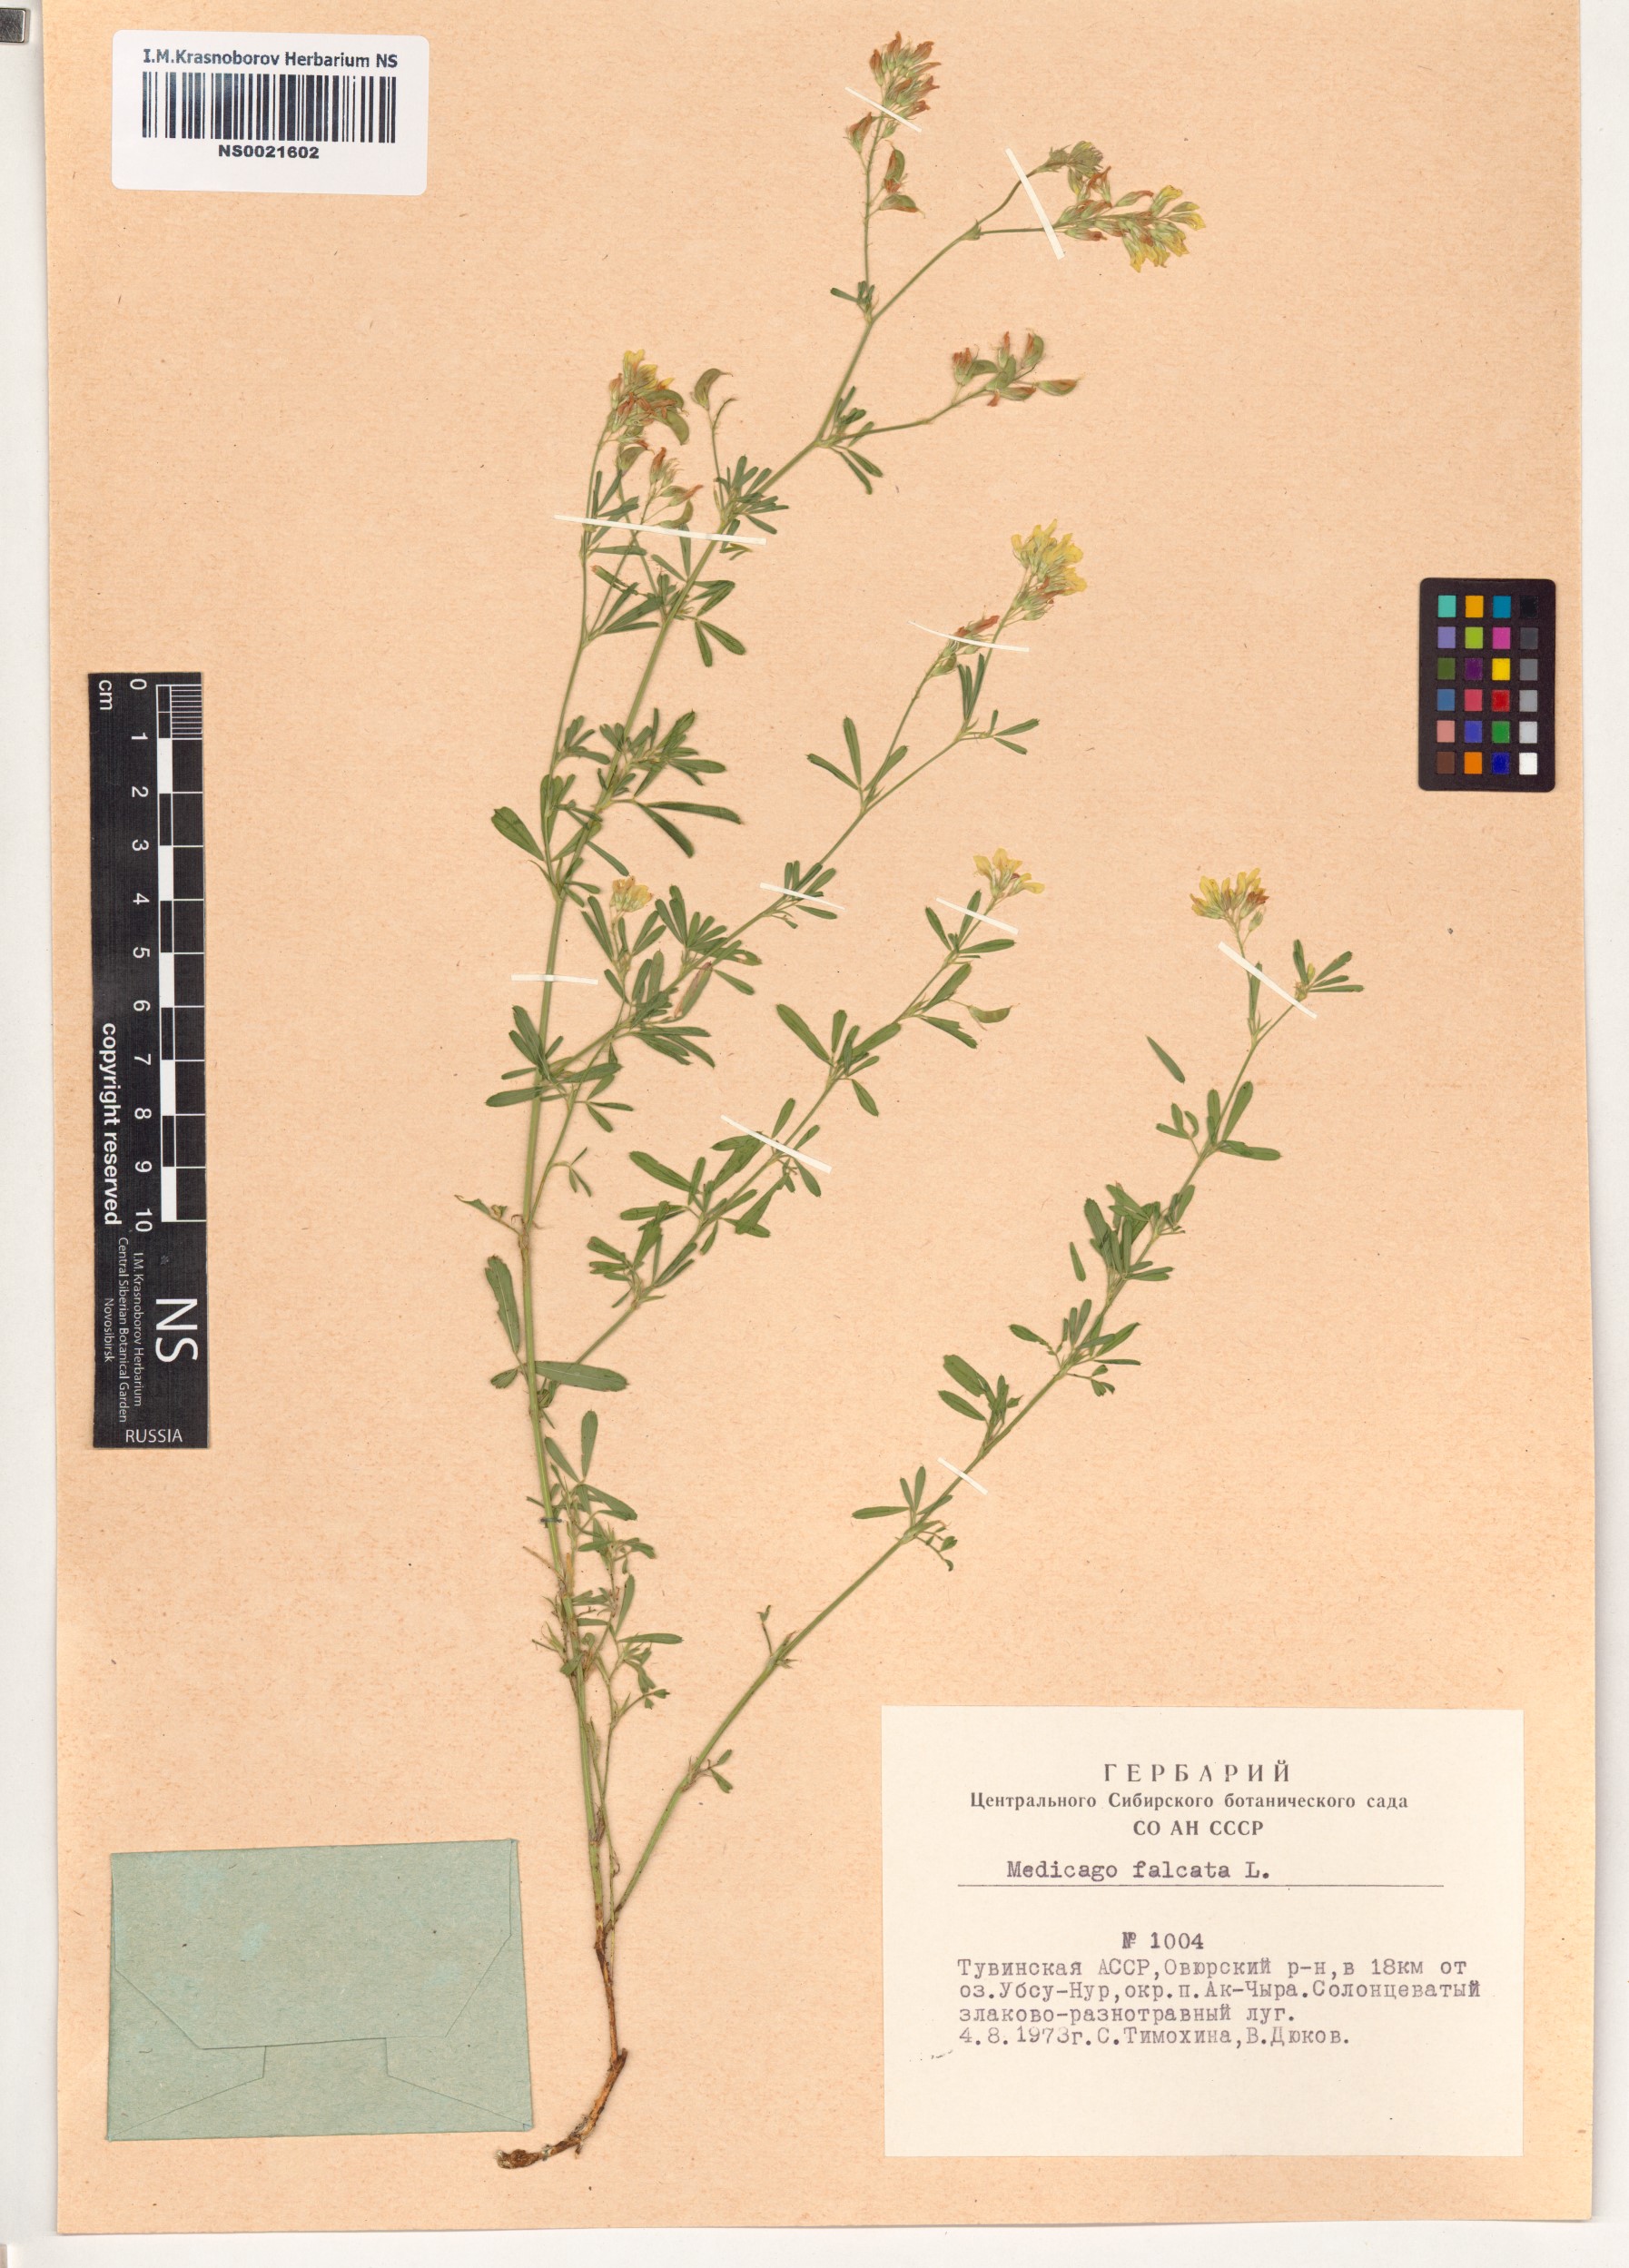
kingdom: Plantae
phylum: Tracheophyta
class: Magnoliopsida
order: Fabales
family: Fabaceae
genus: Medicago
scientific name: Medicago falcata
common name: Sickle medick
